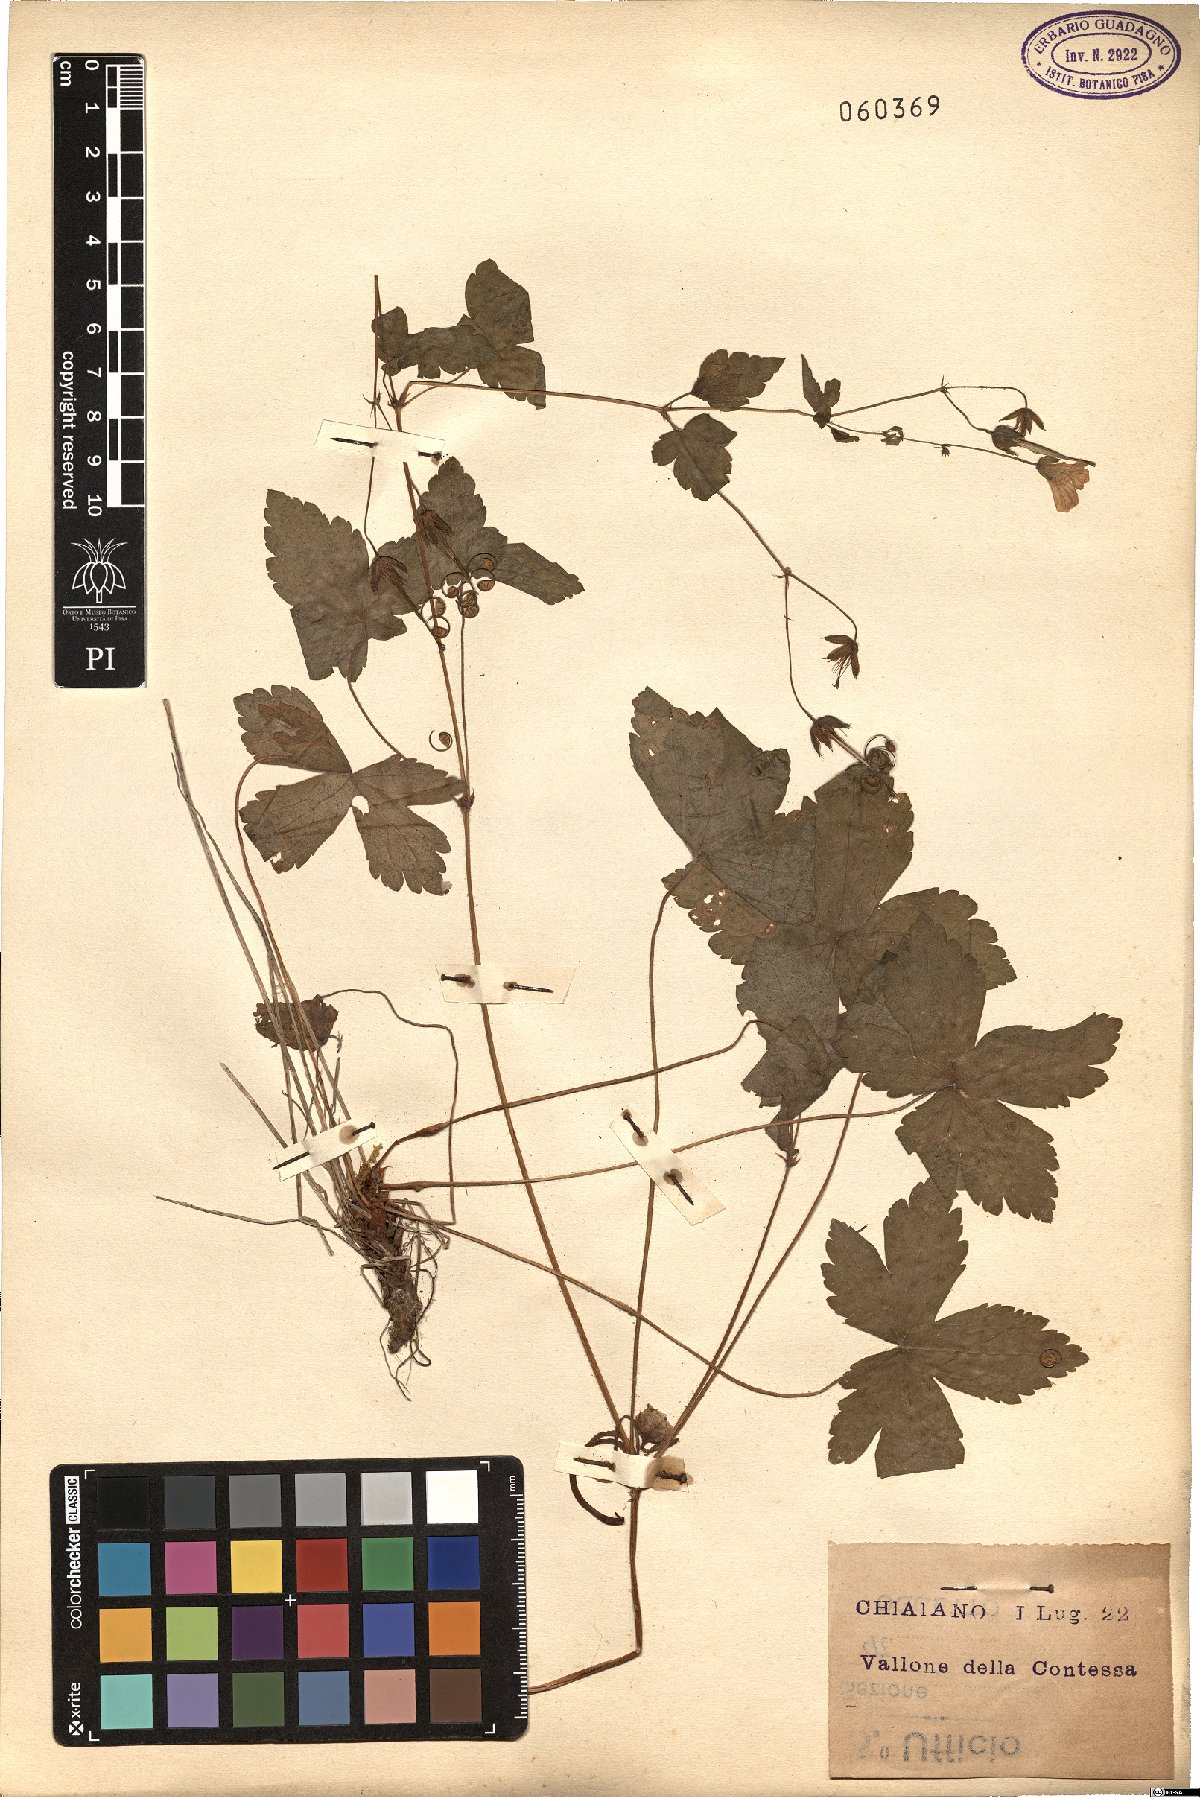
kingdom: Plantae
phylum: Tracheophyta
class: Magnoliopsida
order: Geraniales
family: Geraniaceae
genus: Geranium
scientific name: Geranium versicolor
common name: Pencilled crane's-bill
